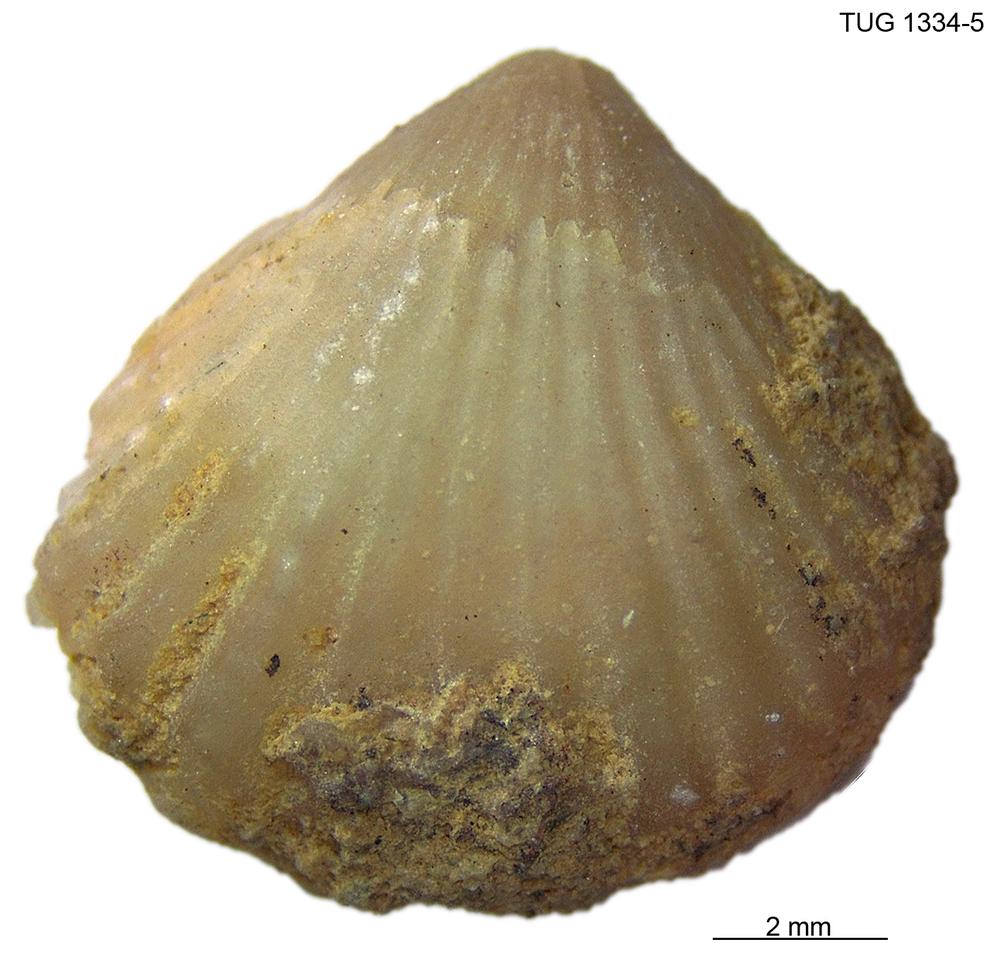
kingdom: Animalia
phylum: Brachiopoda
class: Rhynchonellata
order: Rhynchonellida
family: Trigonirhynchiidae
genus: Rostricellula
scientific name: Rostricellula nobilis
